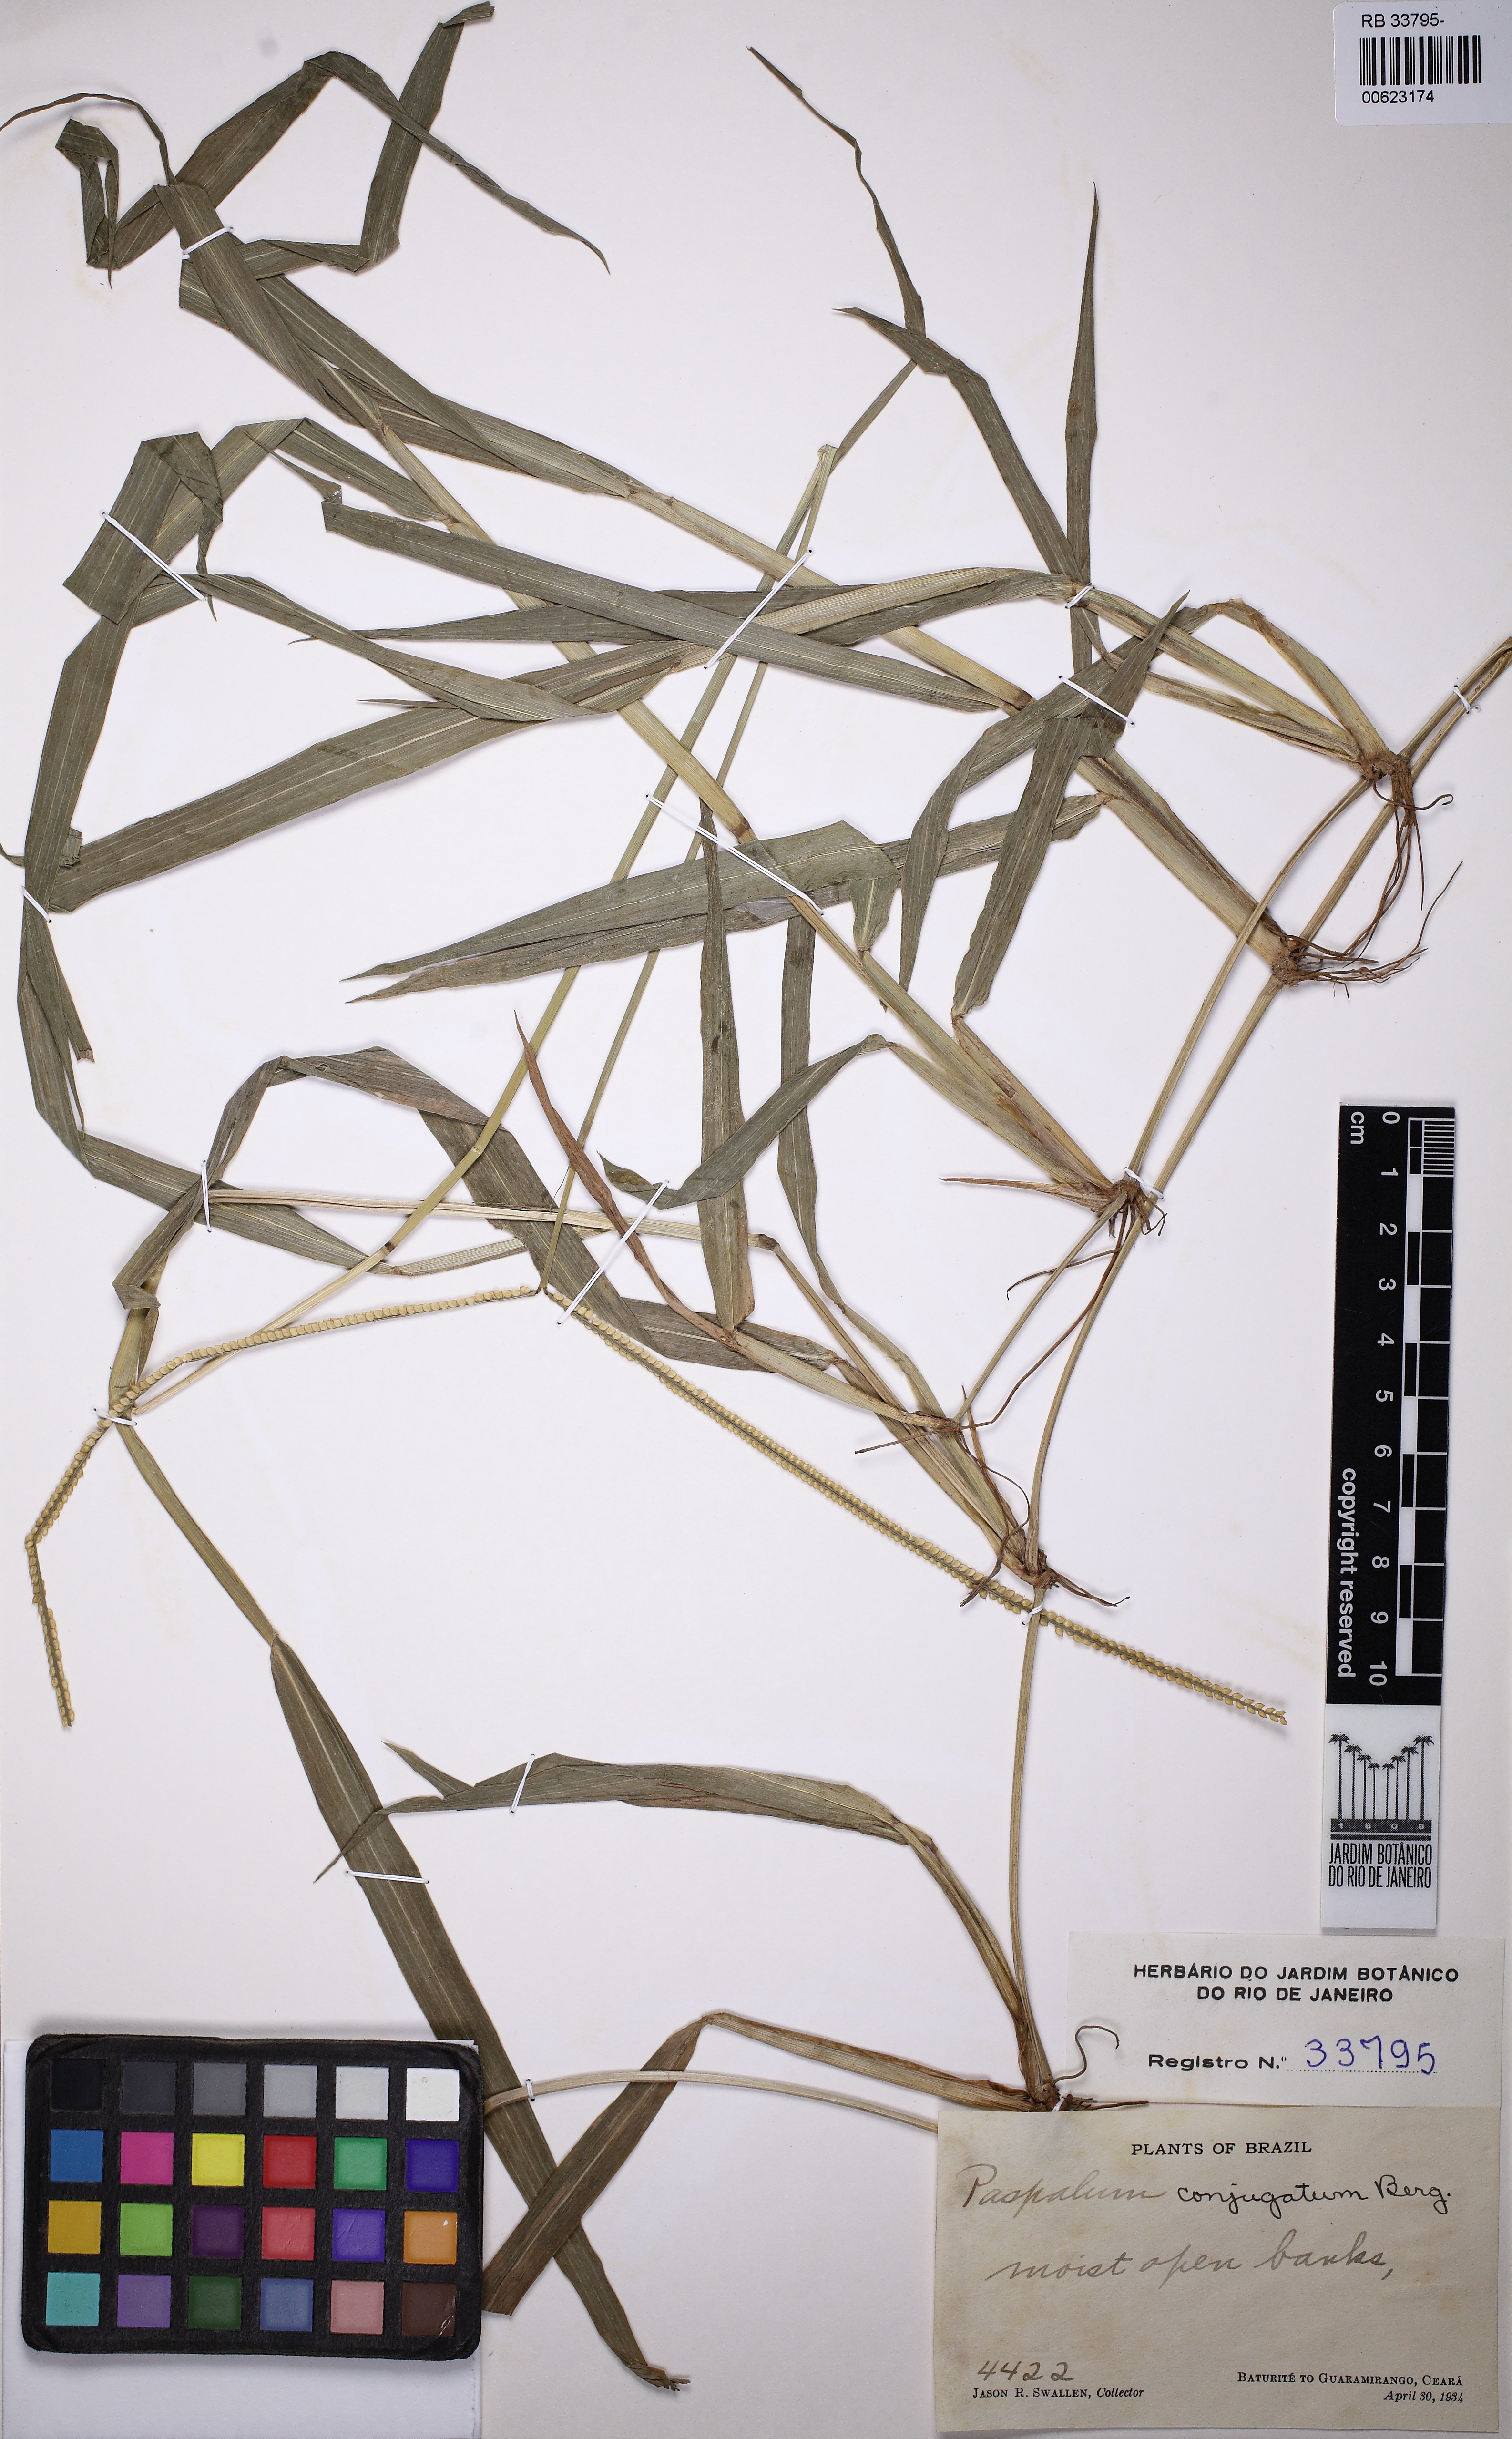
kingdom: Plantae
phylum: Tracheophyta
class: Liliopsida
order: Poales
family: Poaceae
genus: Paspalum
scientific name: Paspalum conjugatum
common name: Hilograss
